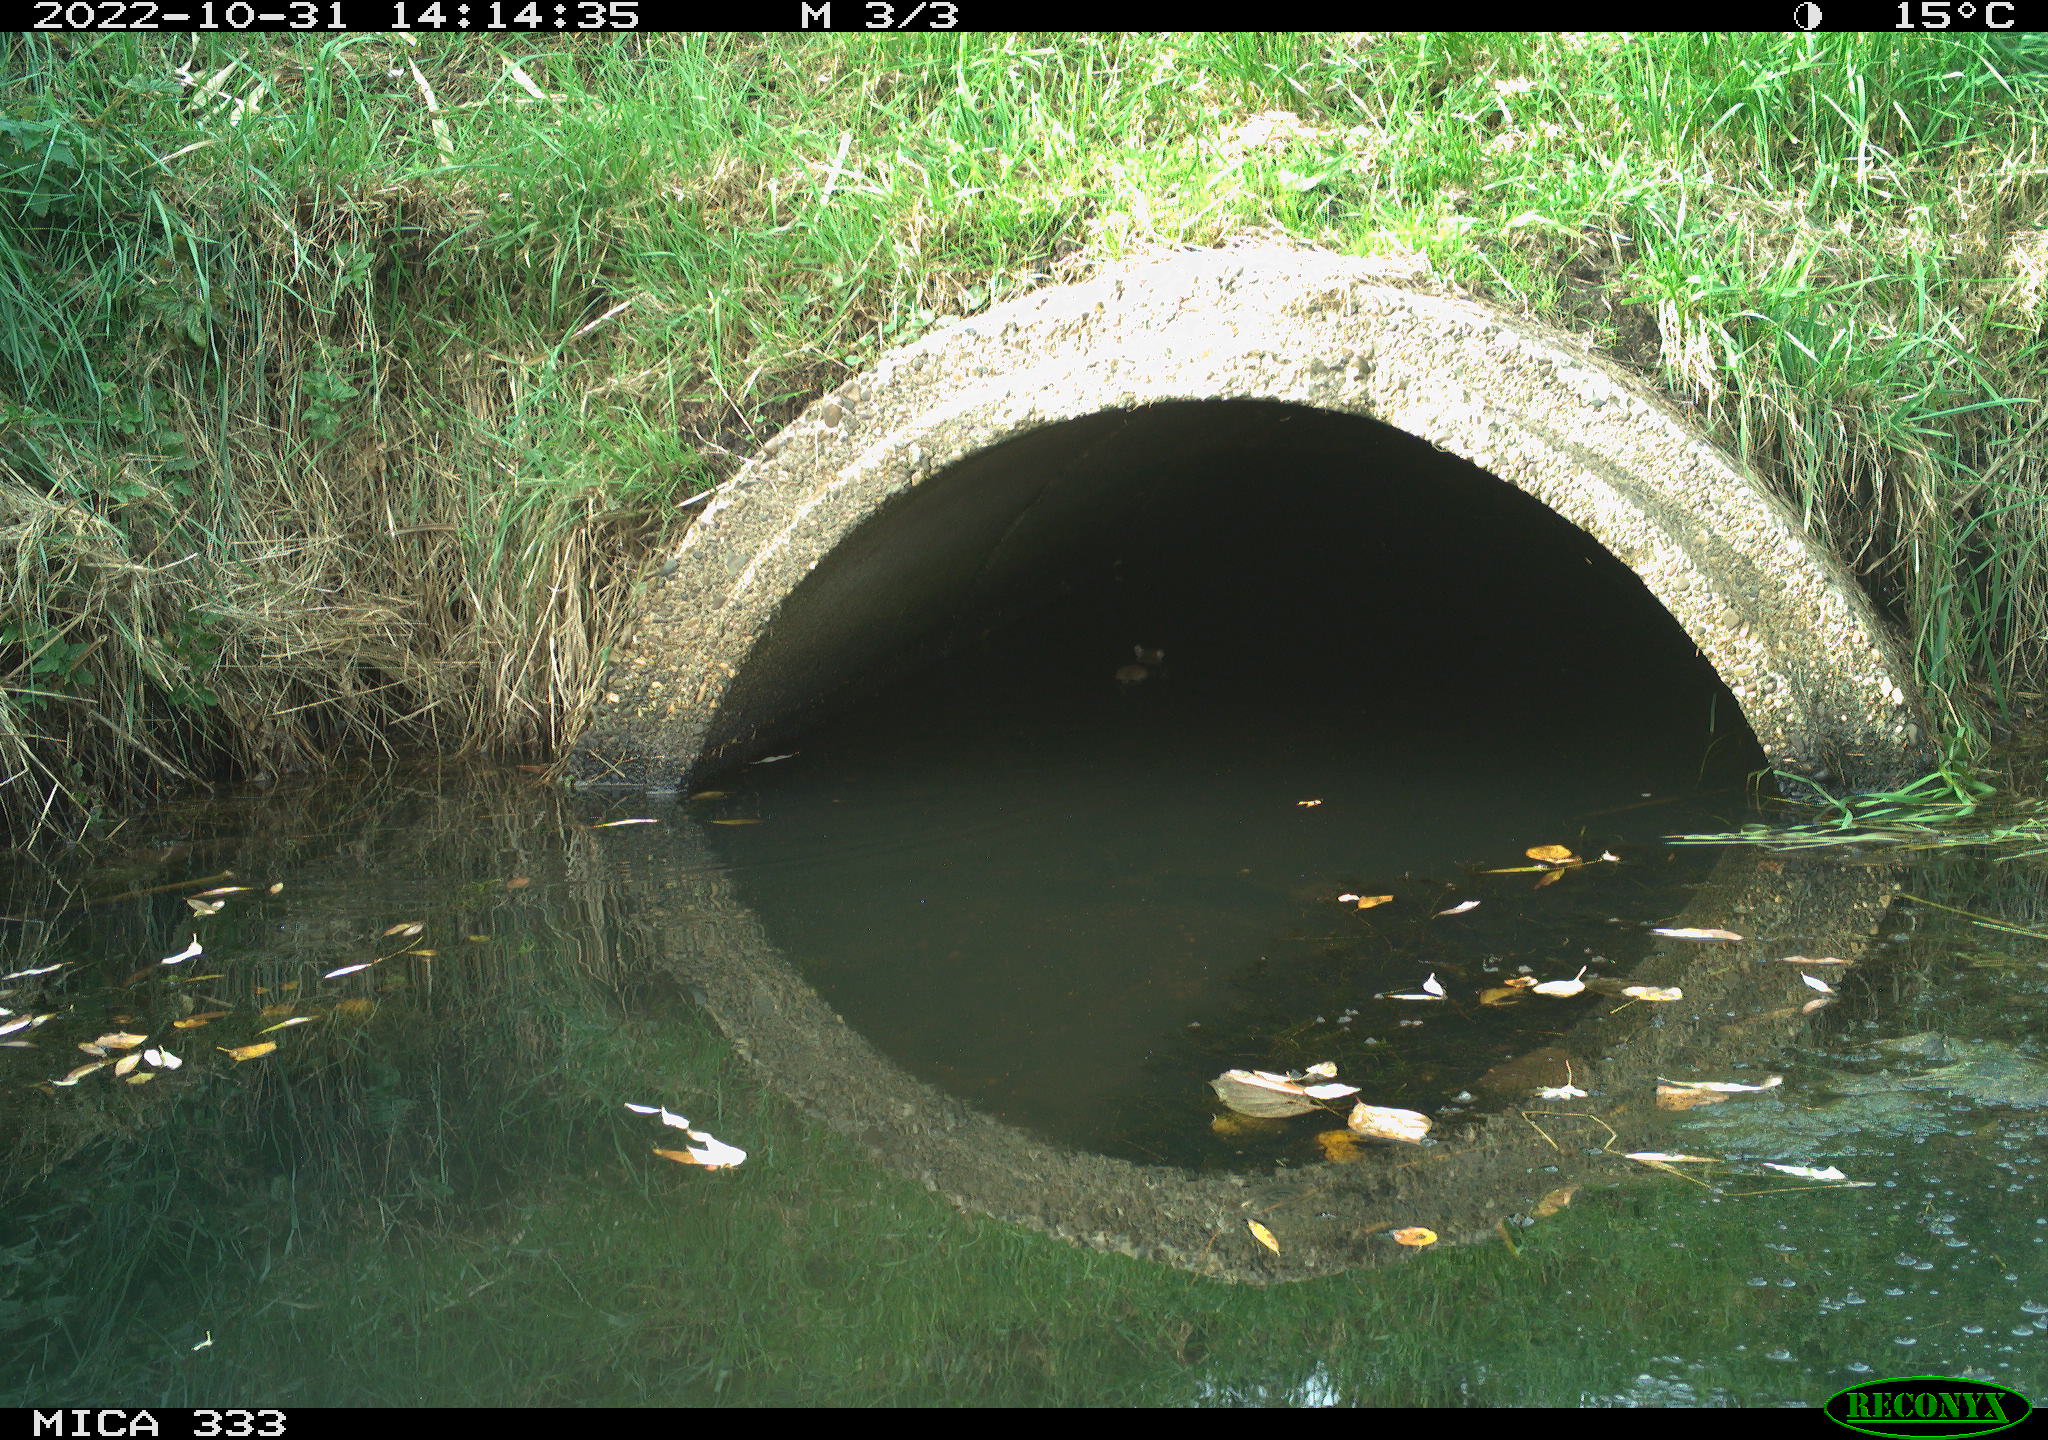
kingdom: Animalia
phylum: Chordata
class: Mammalia
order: Rodentia
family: Muridae
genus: Rattus
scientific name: Rattus norvegicus
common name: Brown rat
